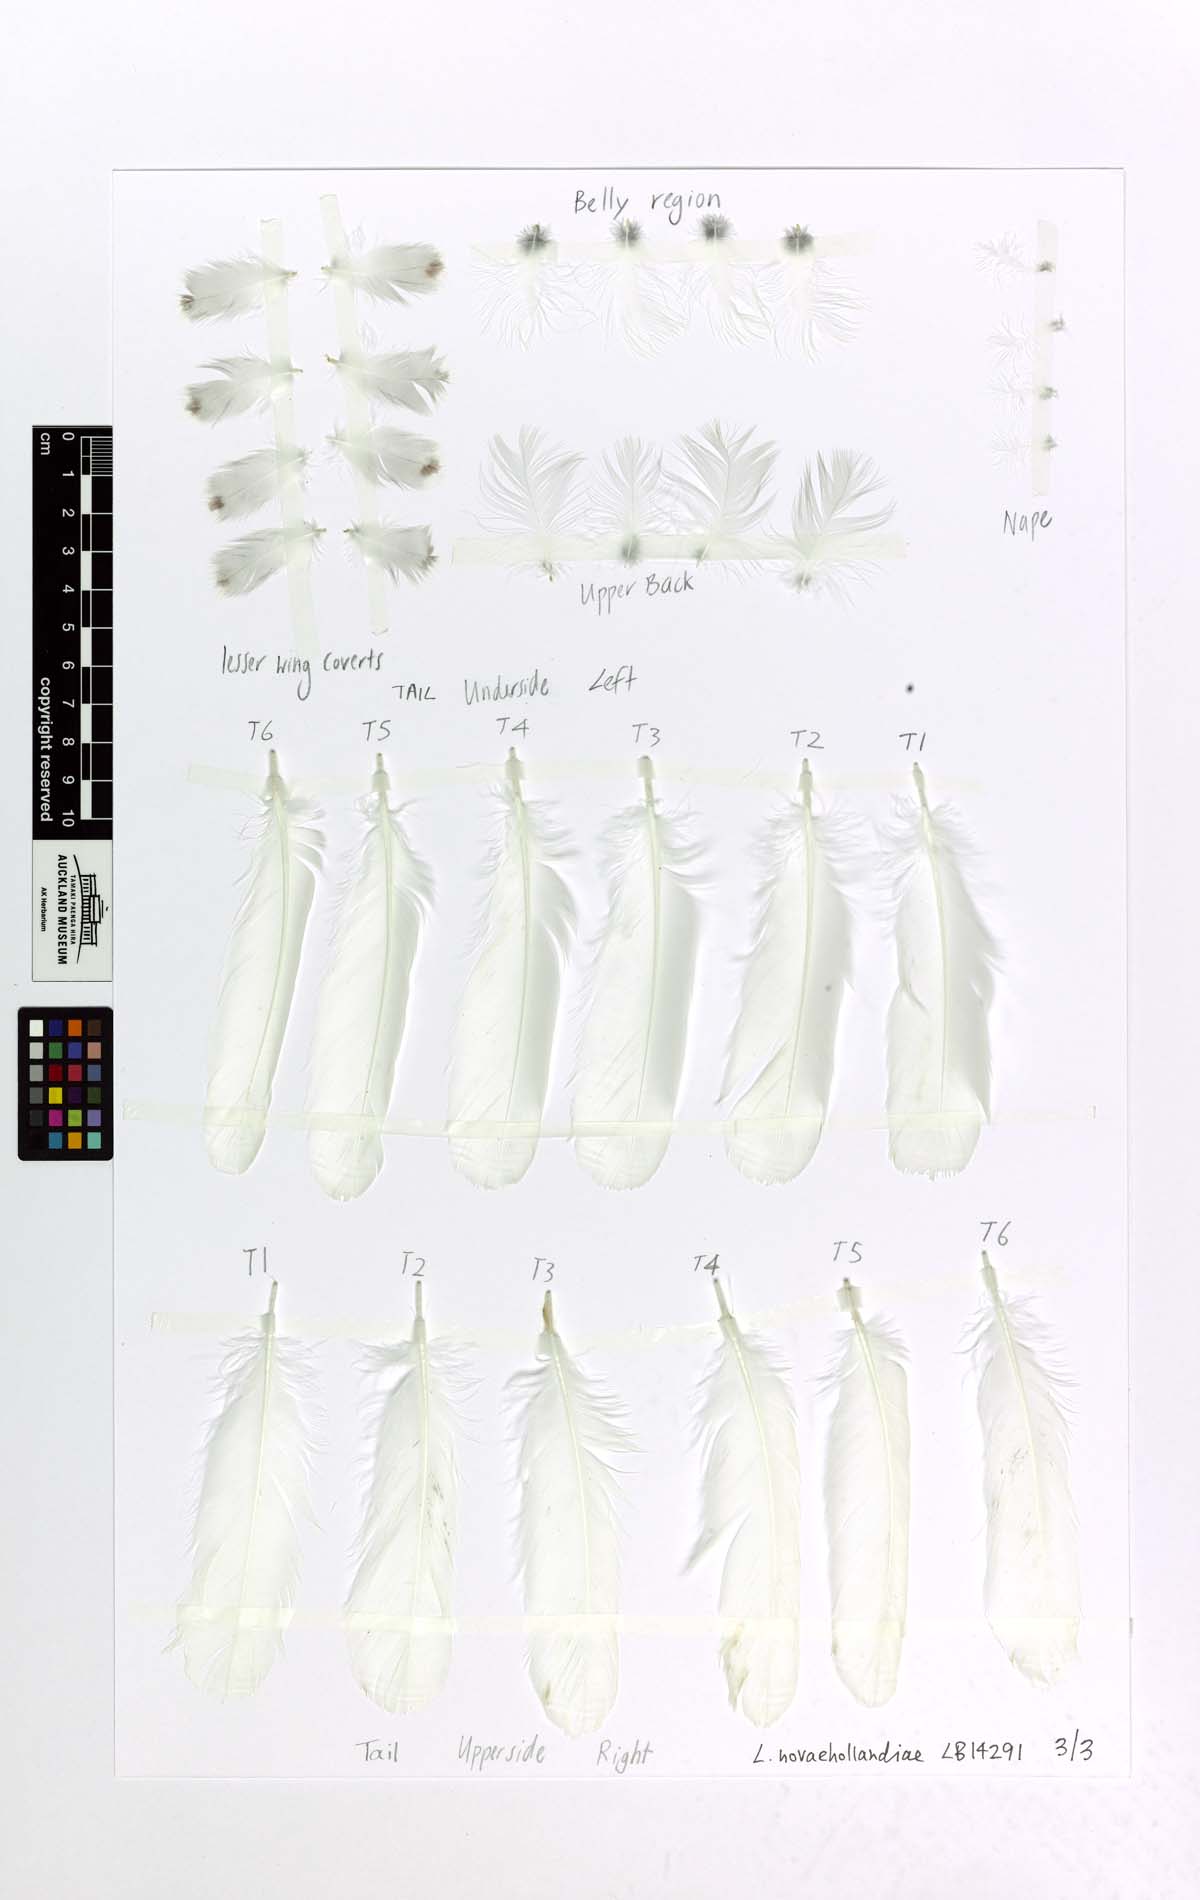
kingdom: Animalia
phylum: Chordata
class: Aves
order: Charadriiformes
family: Laridae
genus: Chroicocephalus
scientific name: Chroicocephalus novaehollandiae
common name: Silver gull
